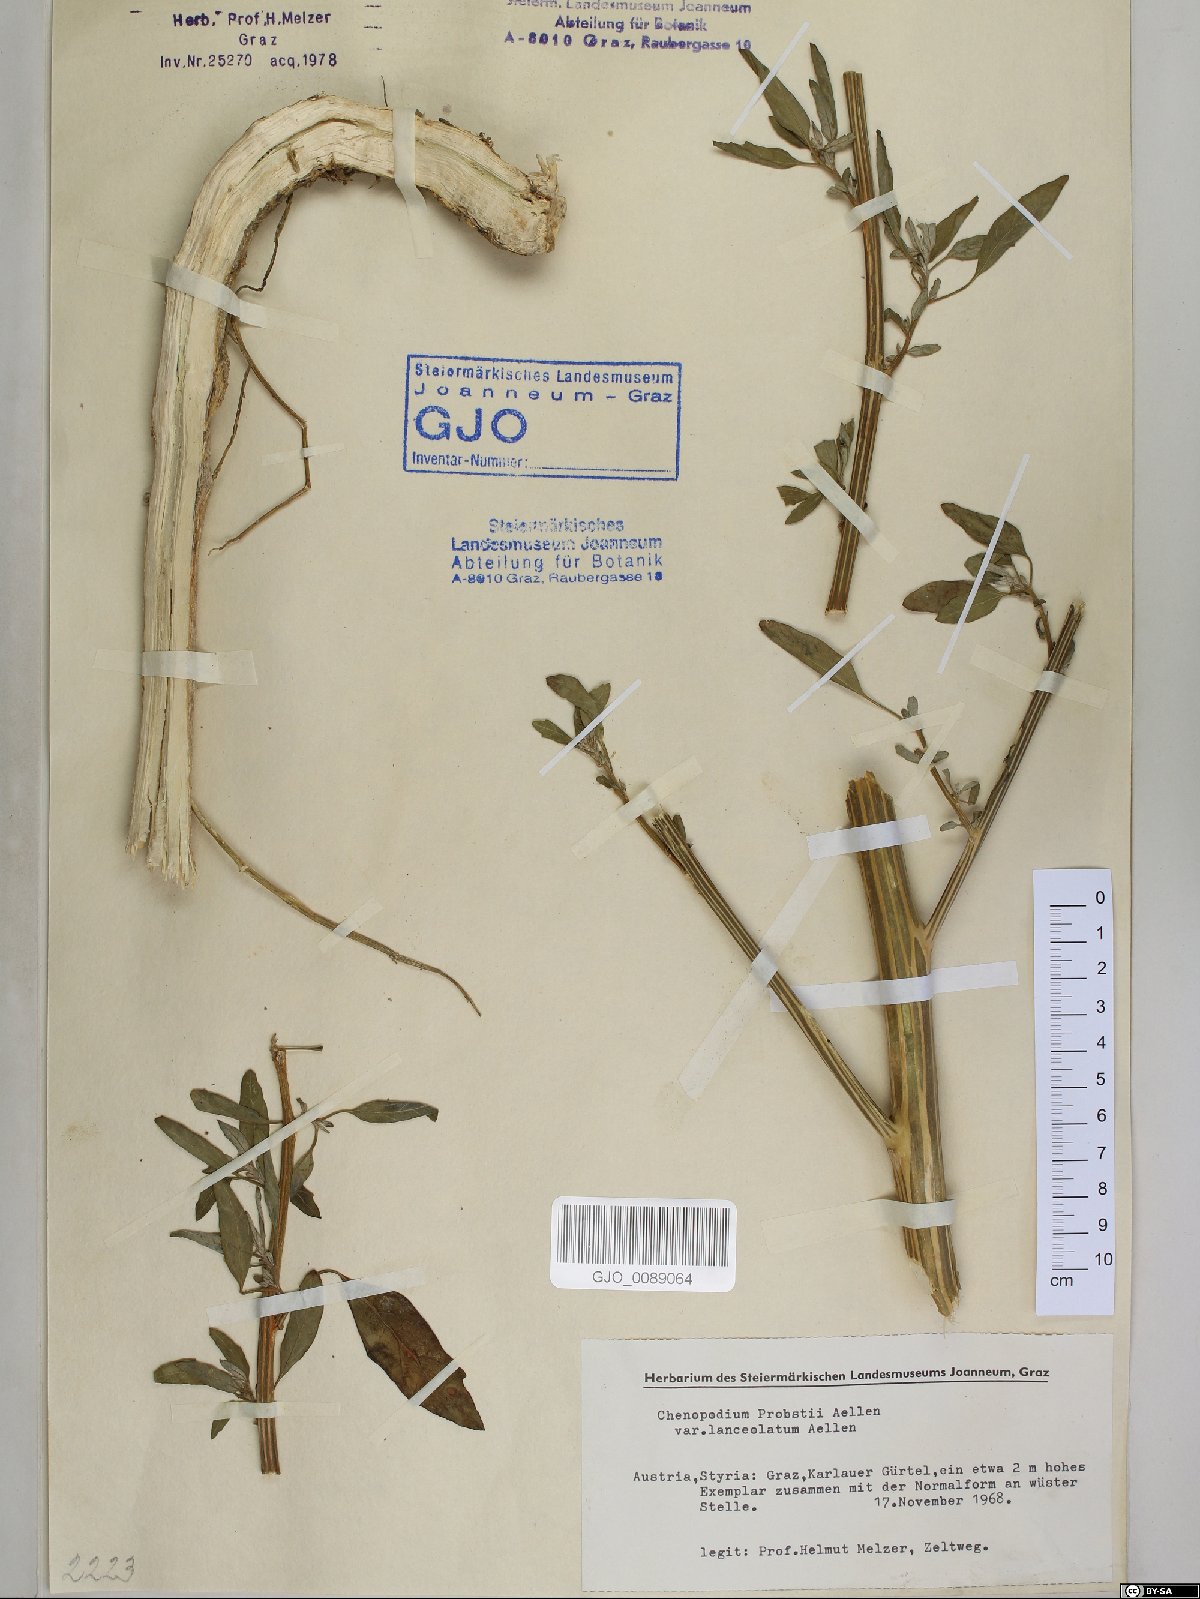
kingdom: Plantae
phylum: Tracheophyta
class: Magnoliopsida
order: Caryophyllales
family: Amaranthaceae
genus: Chenopodium
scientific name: Chenopodium probstii
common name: Probst's goosefoot
